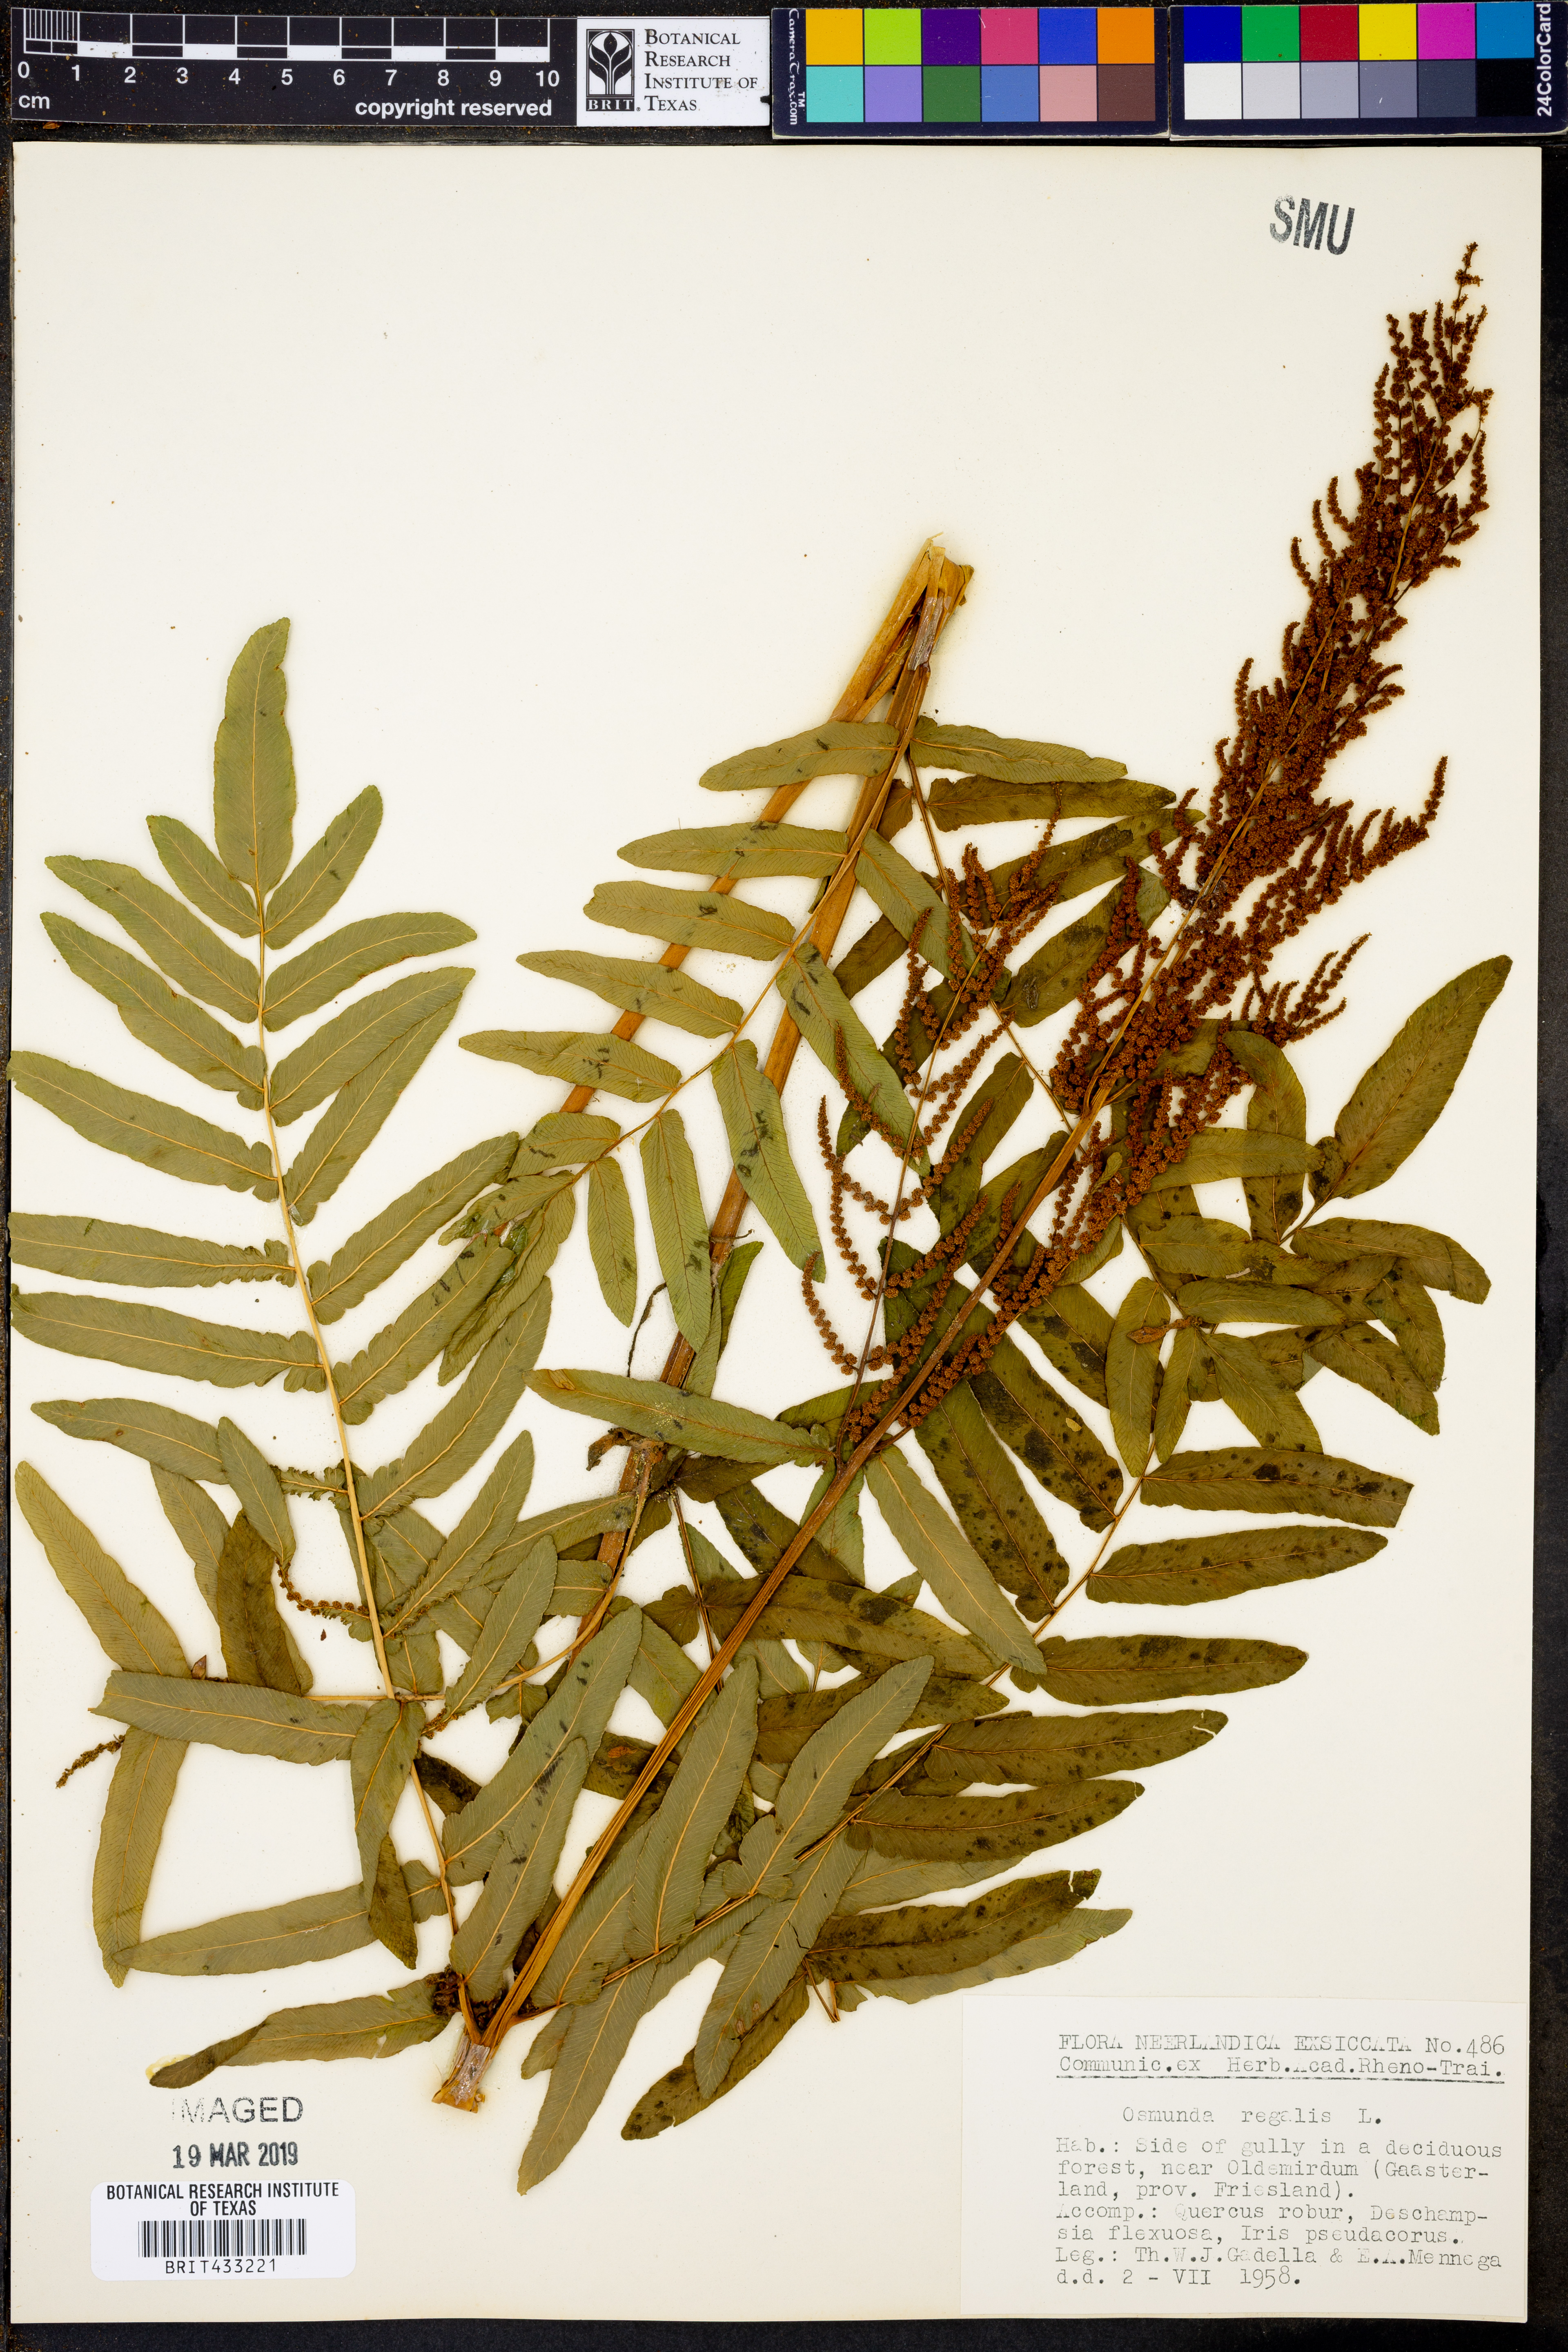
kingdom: Plantae
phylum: Tracheophyta
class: Polypodiopsida
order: Osmundales
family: Osmundaceae
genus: Osmunda
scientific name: Osmunda regalis
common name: Royal fern
